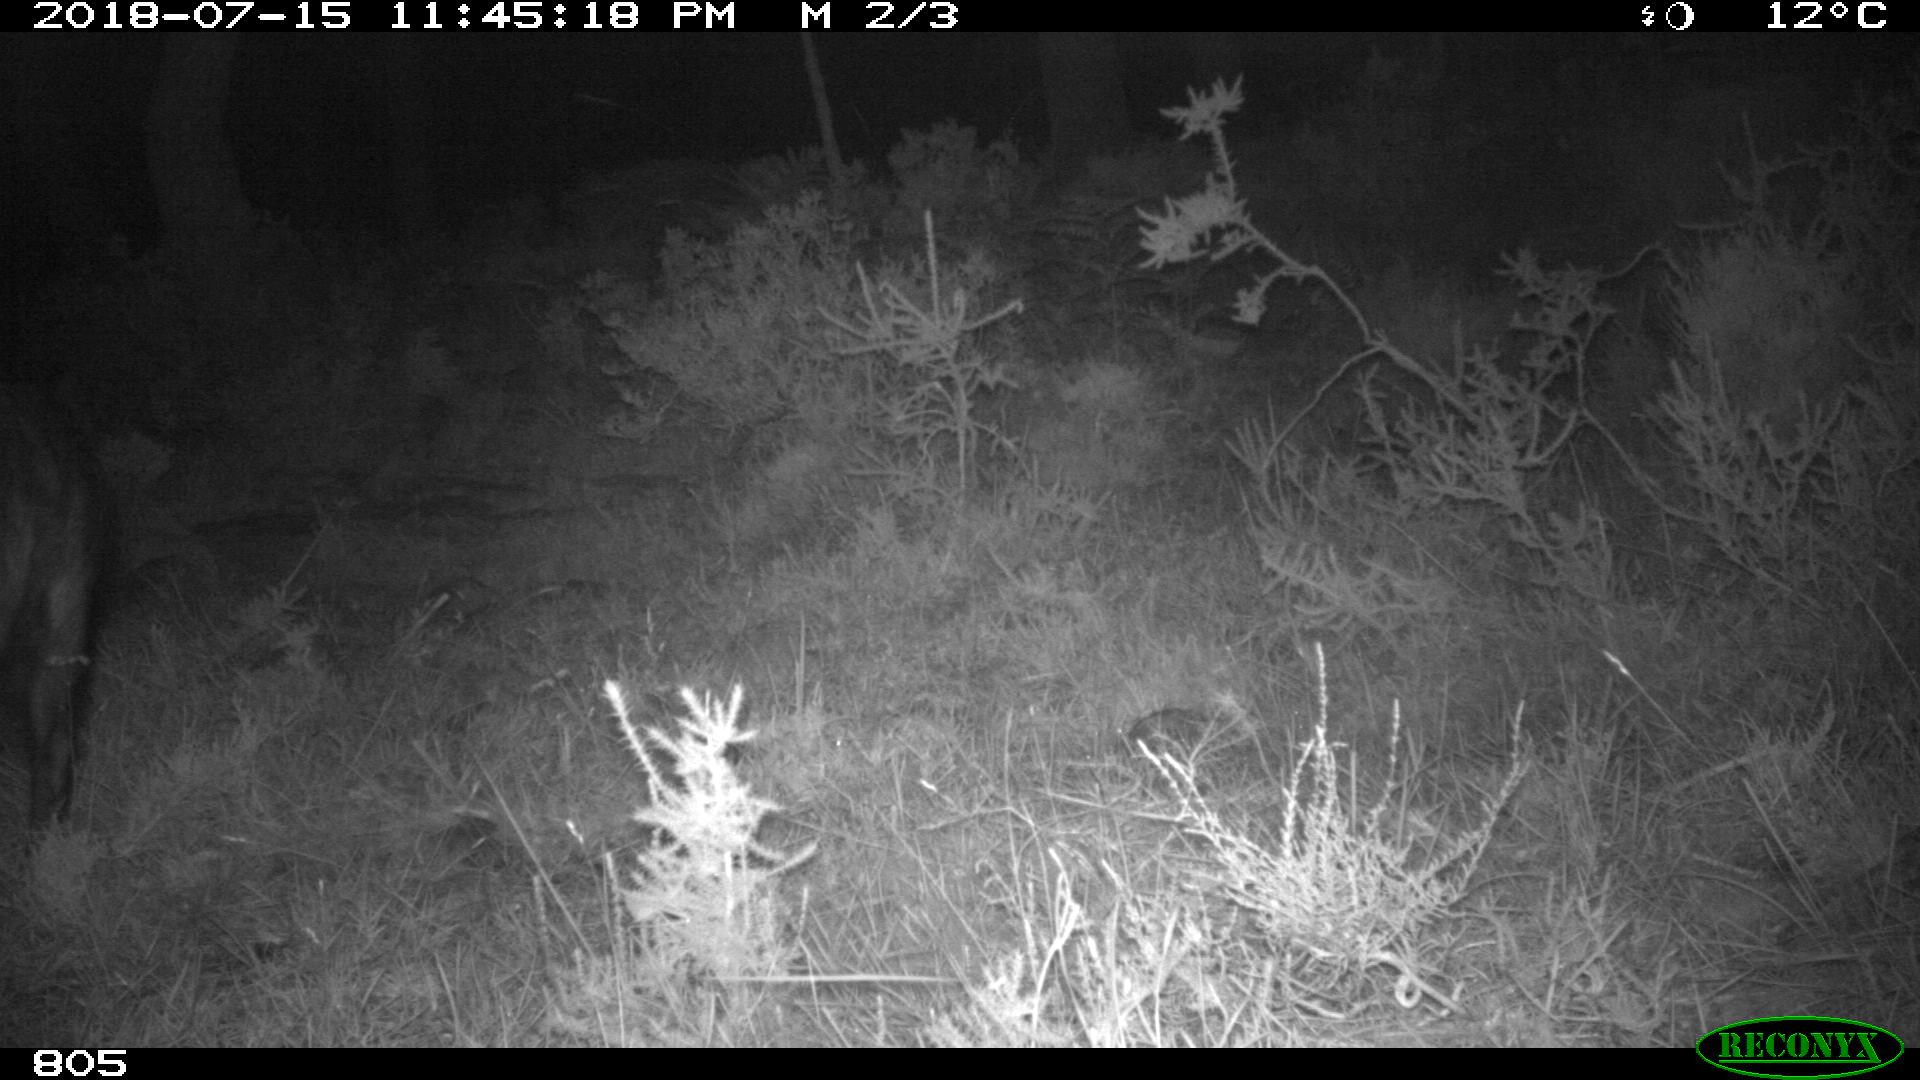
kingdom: Animalia
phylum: Chordata
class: Mammalia
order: Artiodactyla
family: Suidae
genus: Sus
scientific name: Sus scrofa
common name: Wild boar
